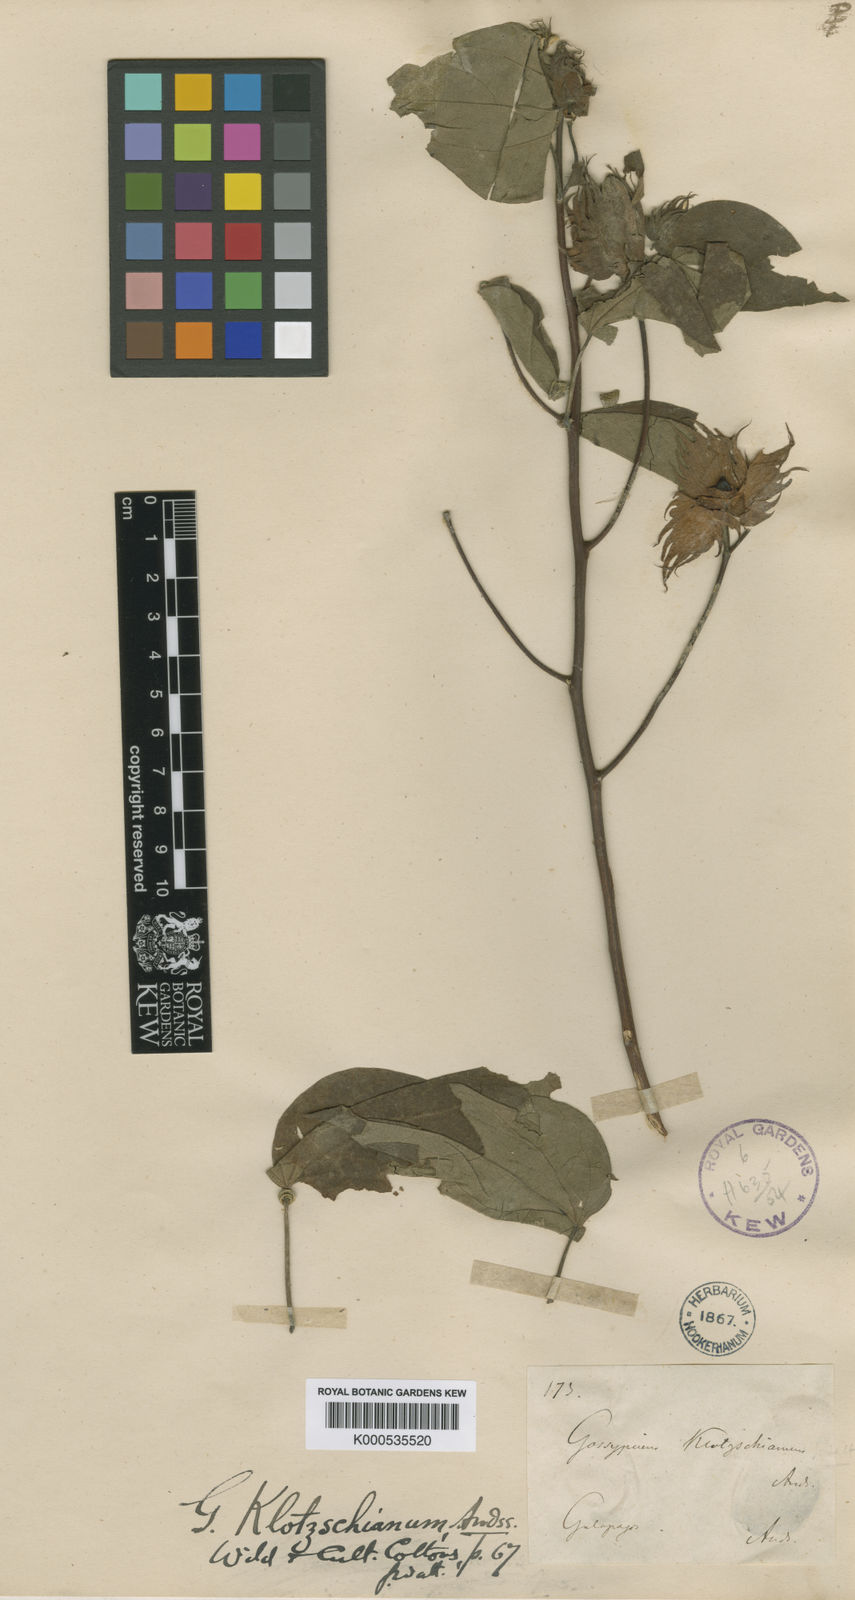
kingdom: Plantae
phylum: Tracheophyta
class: Magnoliopsida
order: Malvales
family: Malvaceae
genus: Gossypium
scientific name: Gossypium klotzschianum
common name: Galapagos cotton
